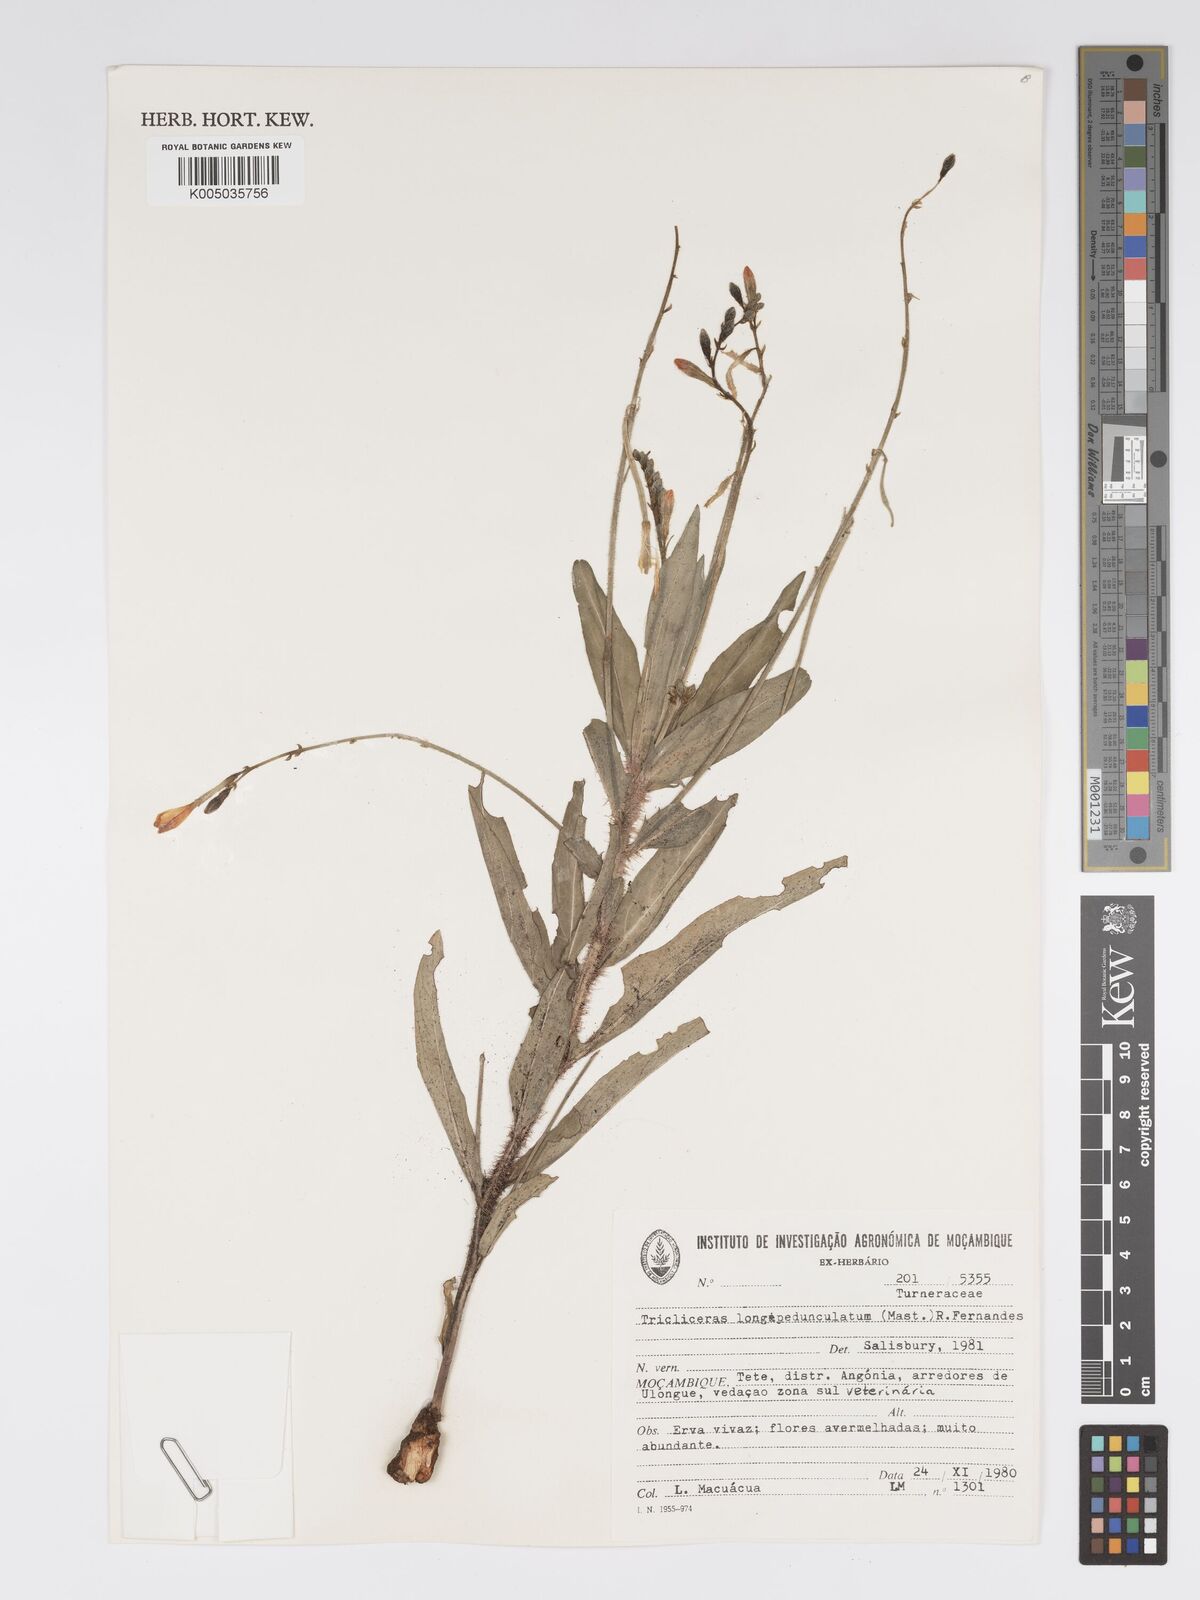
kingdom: Plantae
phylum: Tracheophyta
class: Magnoliopsida
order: Malpighiales
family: Turneraceae
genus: Tricliceras
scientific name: Tricliceras longepedunculatum
